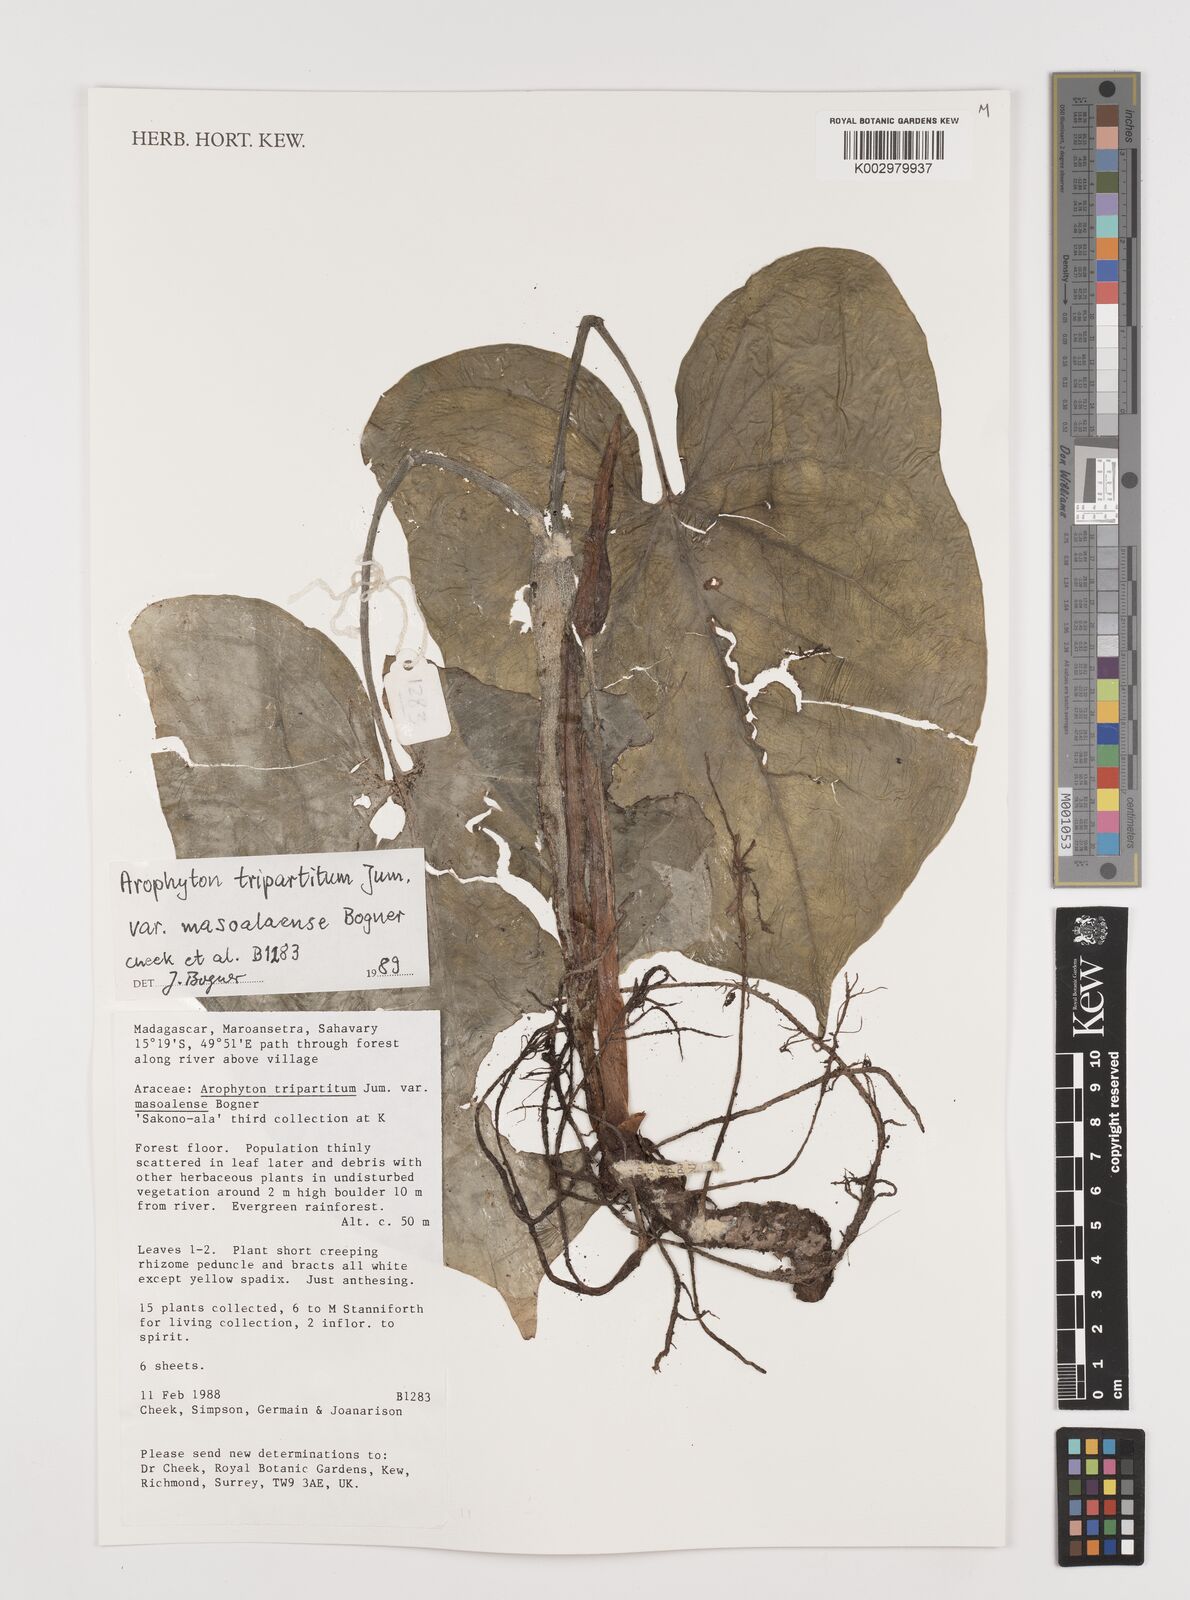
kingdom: Plantae
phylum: Tracheophyta
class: Liliopsida
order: Alismatales
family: Araceae
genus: Arophyton
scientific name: Arophyton tripartitum
